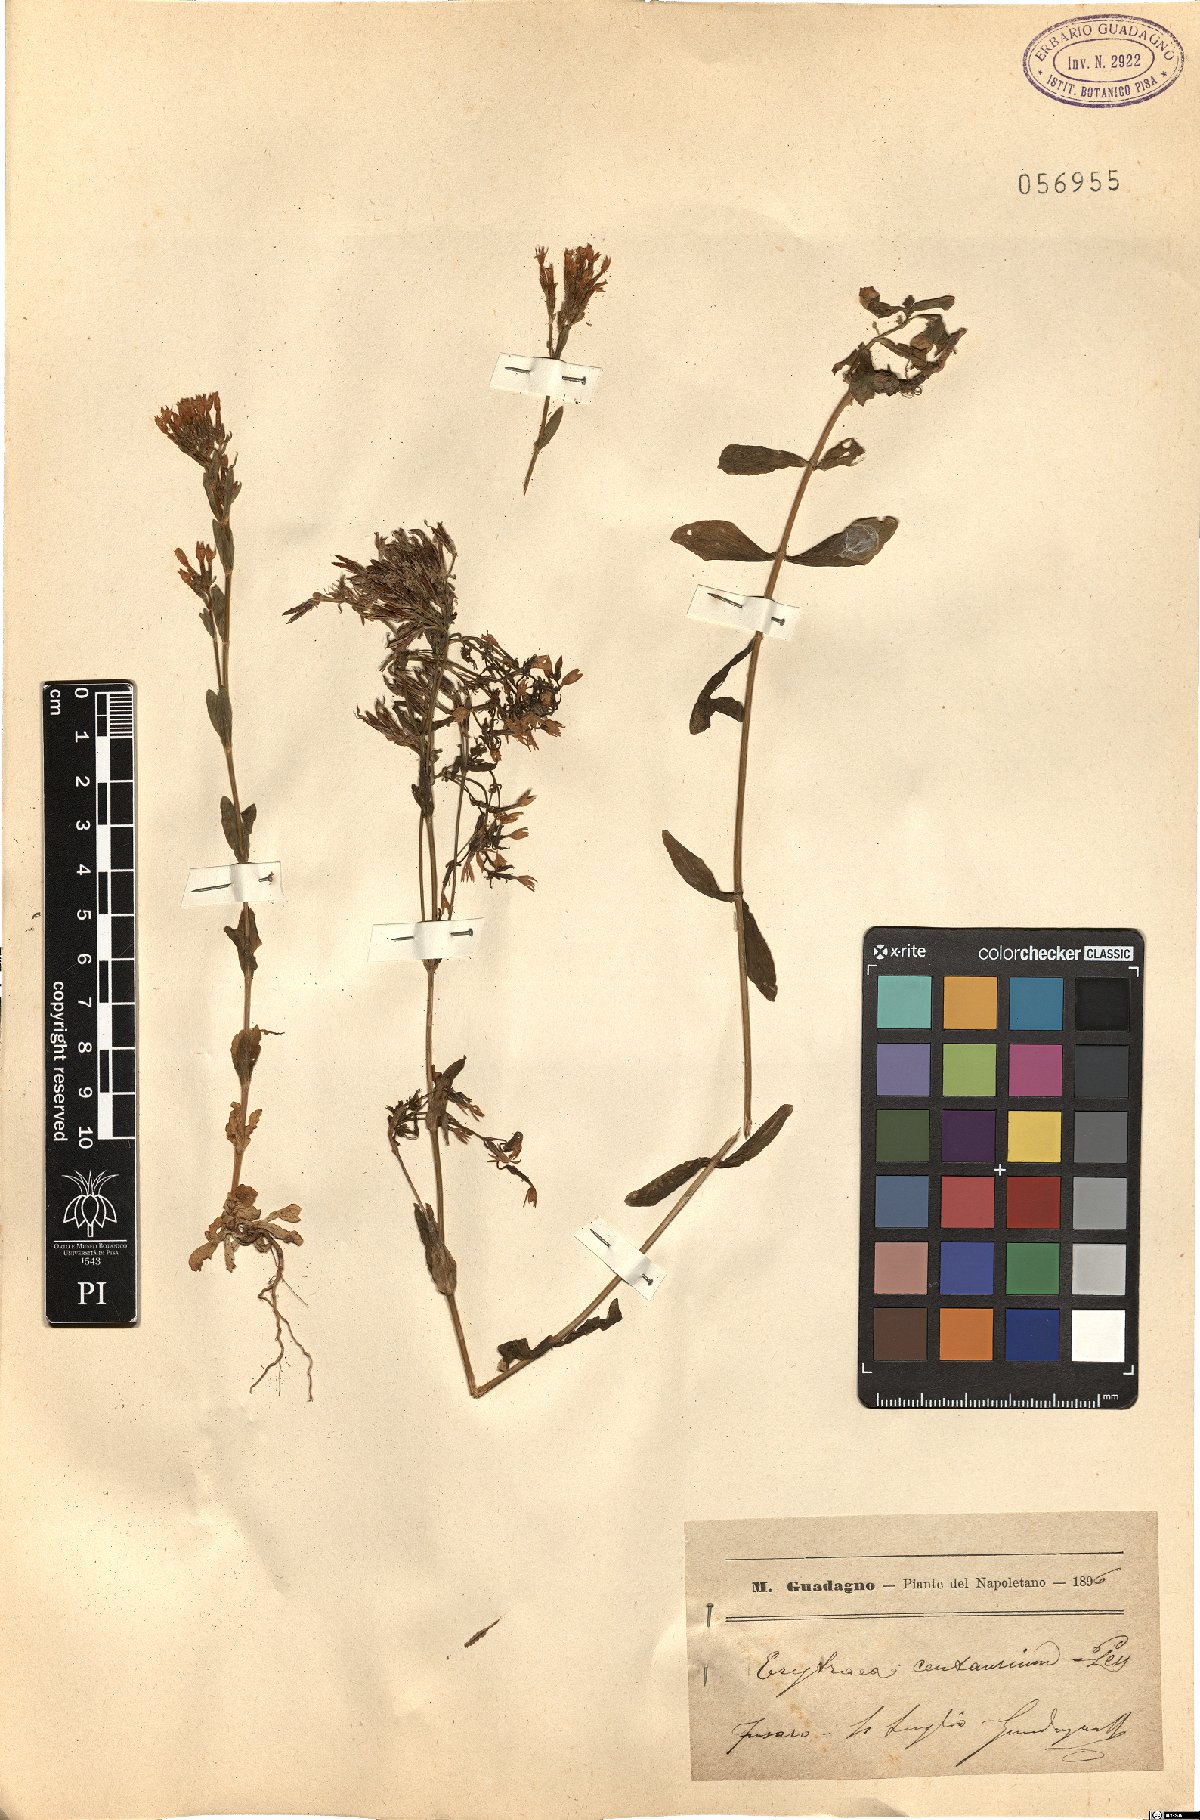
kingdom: Plantae
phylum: Tracheophyta
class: Magnoliopsida
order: Gentianales
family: Gentianaceae
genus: Centaurium
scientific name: Centaurium erythraea
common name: Common centaury
